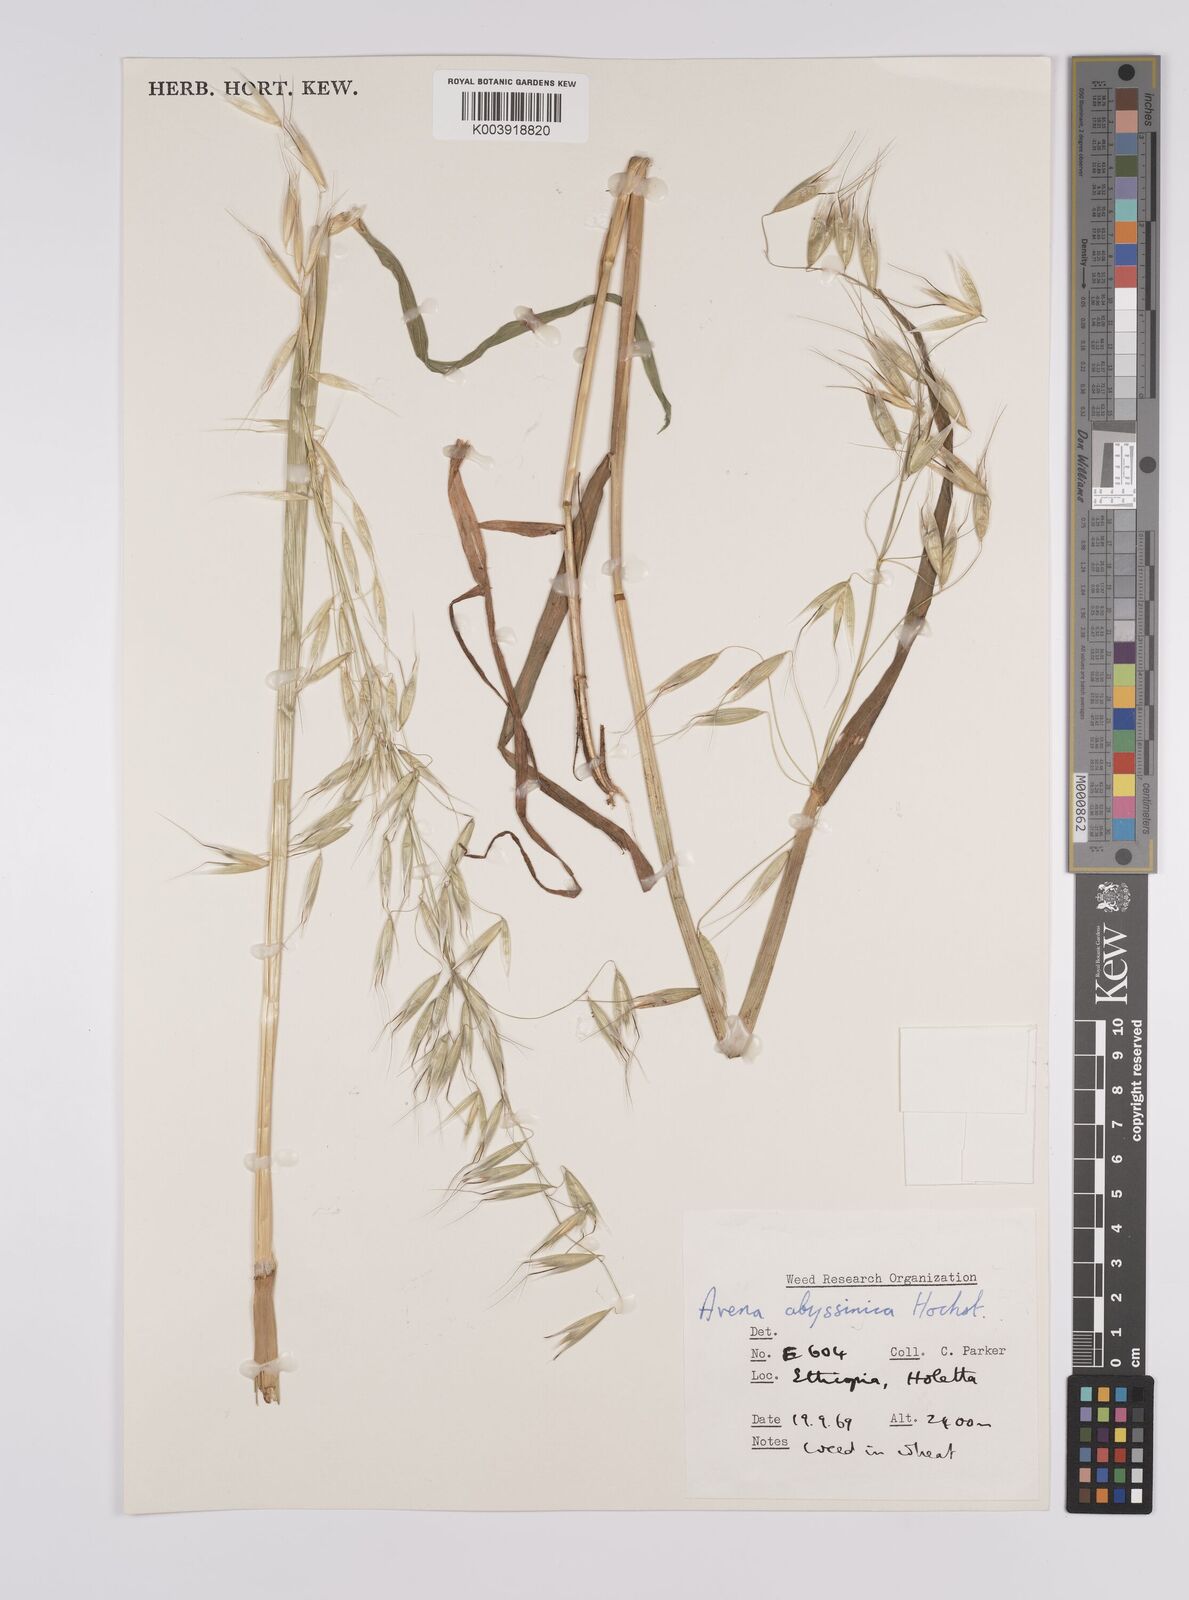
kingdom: Plantae
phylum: Tracheophyta
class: Liliopsida
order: Poales
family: Poaceae
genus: Avena
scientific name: Avena abyssinica
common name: Ethiopian oat
